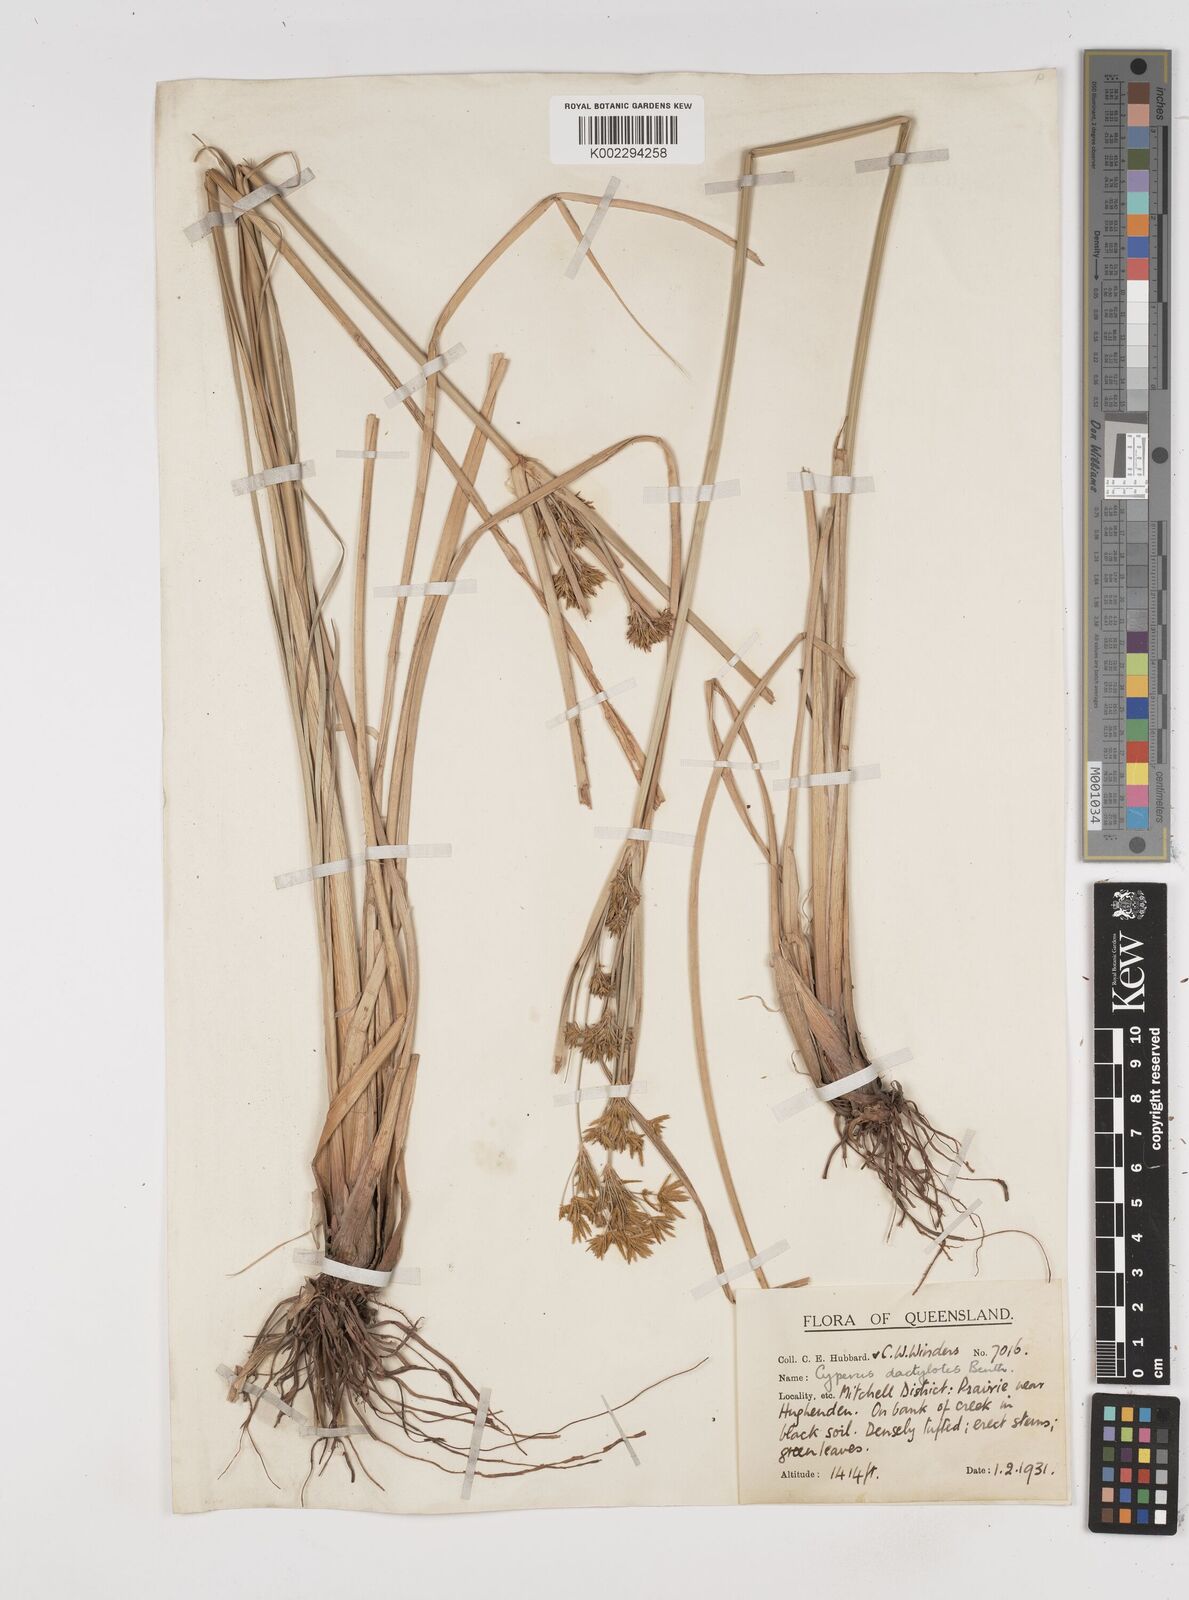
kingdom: Plantae
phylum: Tracheophyta
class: Liliopsida
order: Poales
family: Cyperaceae
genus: Cyperus
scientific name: Cyperus dactylotes
